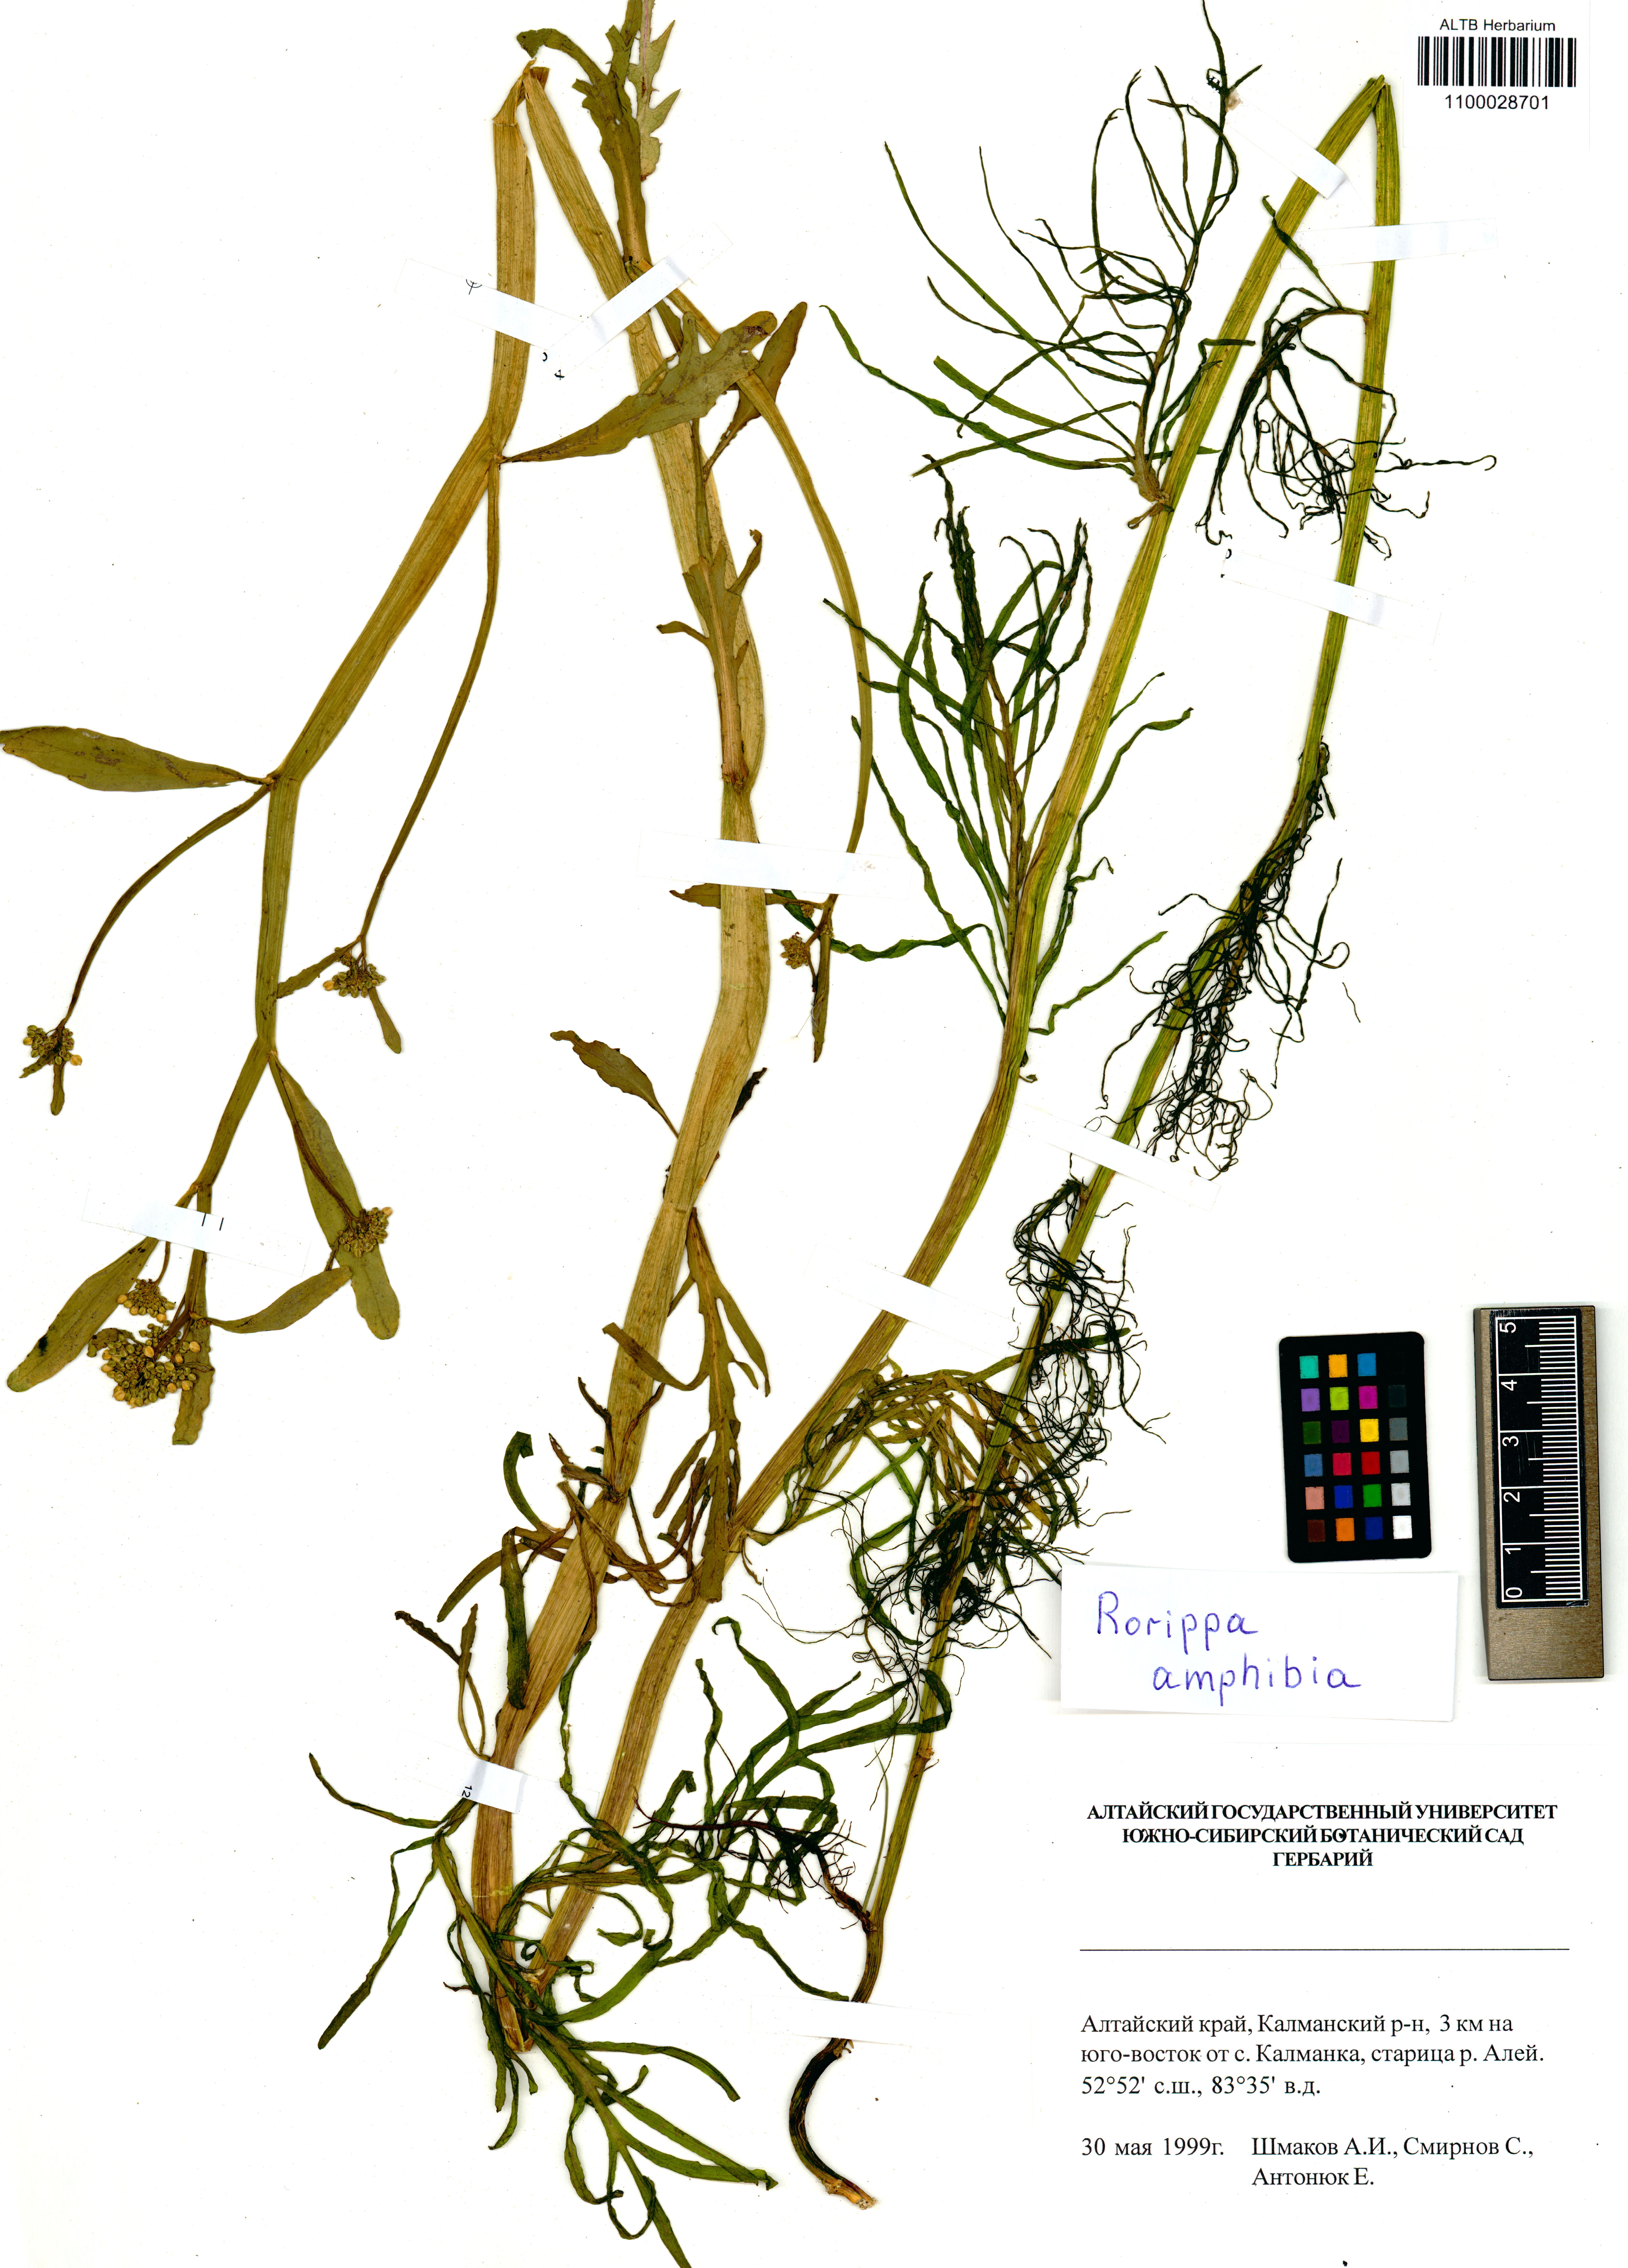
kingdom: Plantae
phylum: Tracheophyta
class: Magnoliopsida
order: Brassicales
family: Brassicaceae
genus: Rorippa
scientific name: Rorippa amphibia
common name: Great yellow-cress
